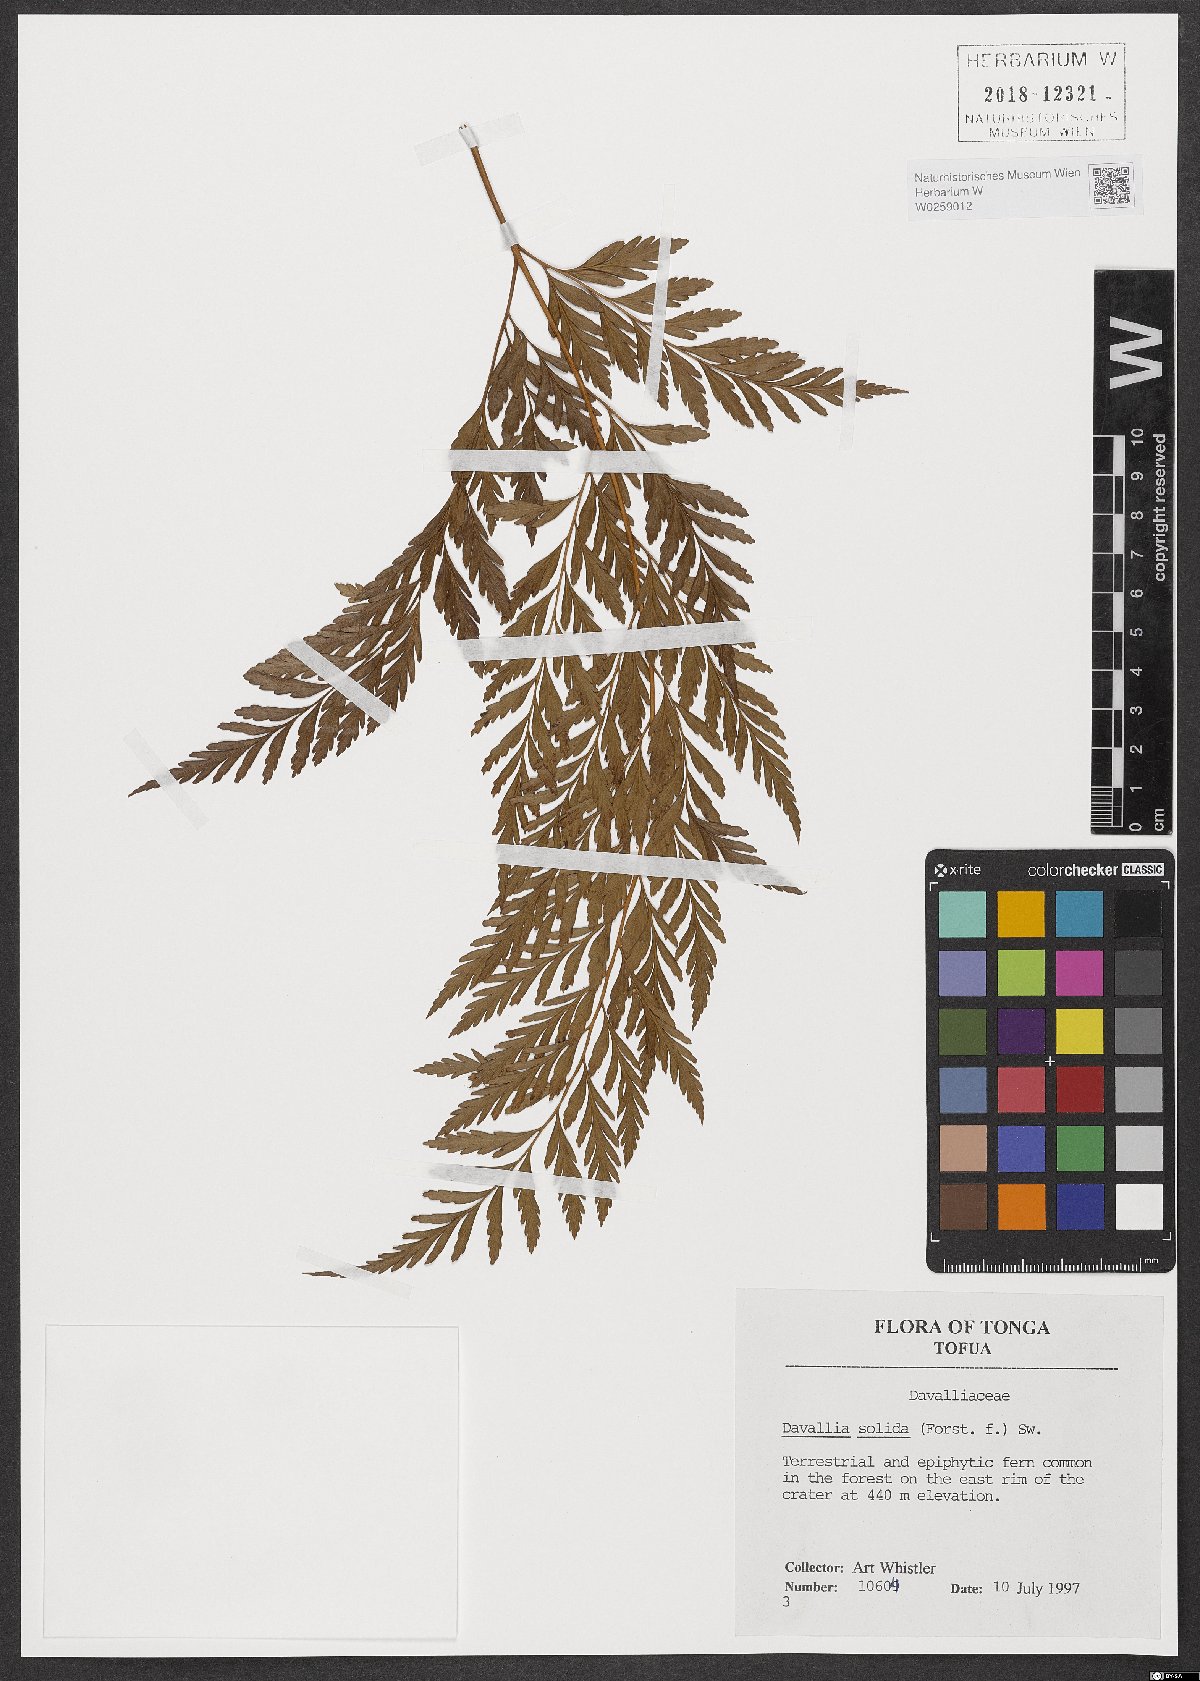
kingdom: Plantae
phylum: Tracheophyta
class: Polypodiopsida
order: Polypodiales
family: Davalliaceae
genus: Davallia
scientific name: Davallia solida
